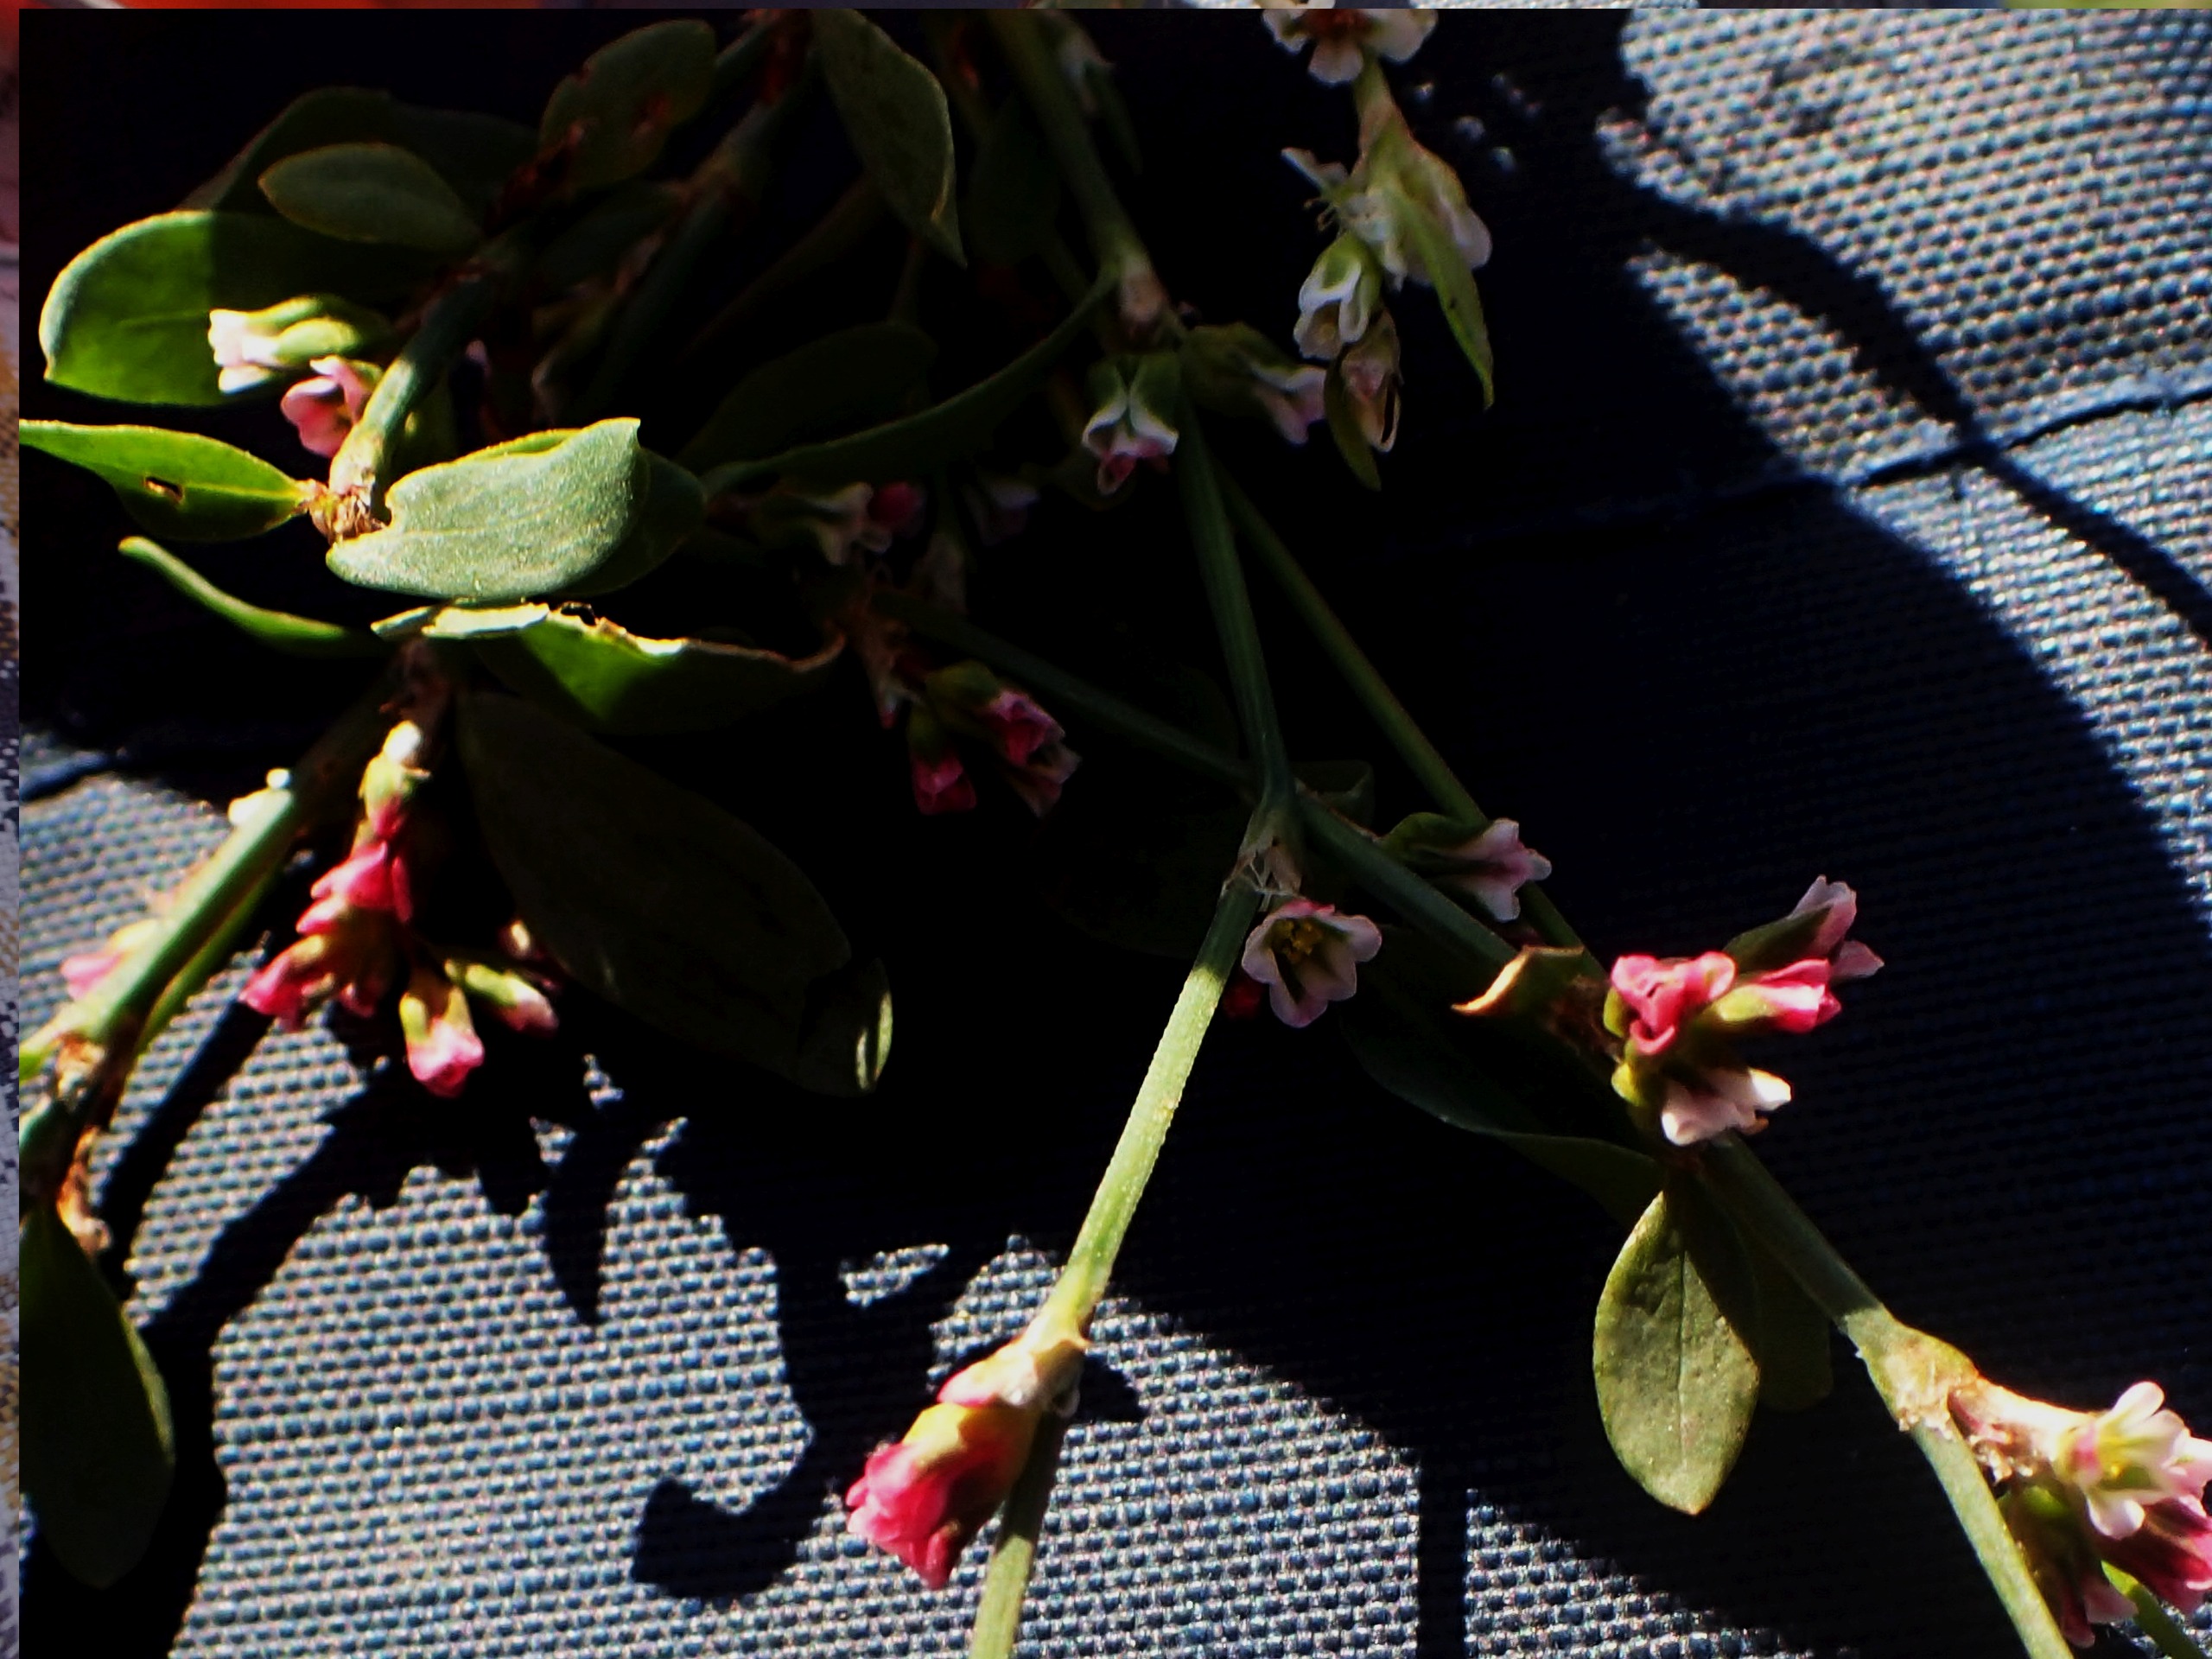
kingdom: Plantae
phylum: Tracheophyta
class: Magnoliopsida
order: Caryophyllales
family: Polygonaceae
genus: Polygonum
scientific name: Polygonum arenastrum
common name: Liggende vej-pileurt
